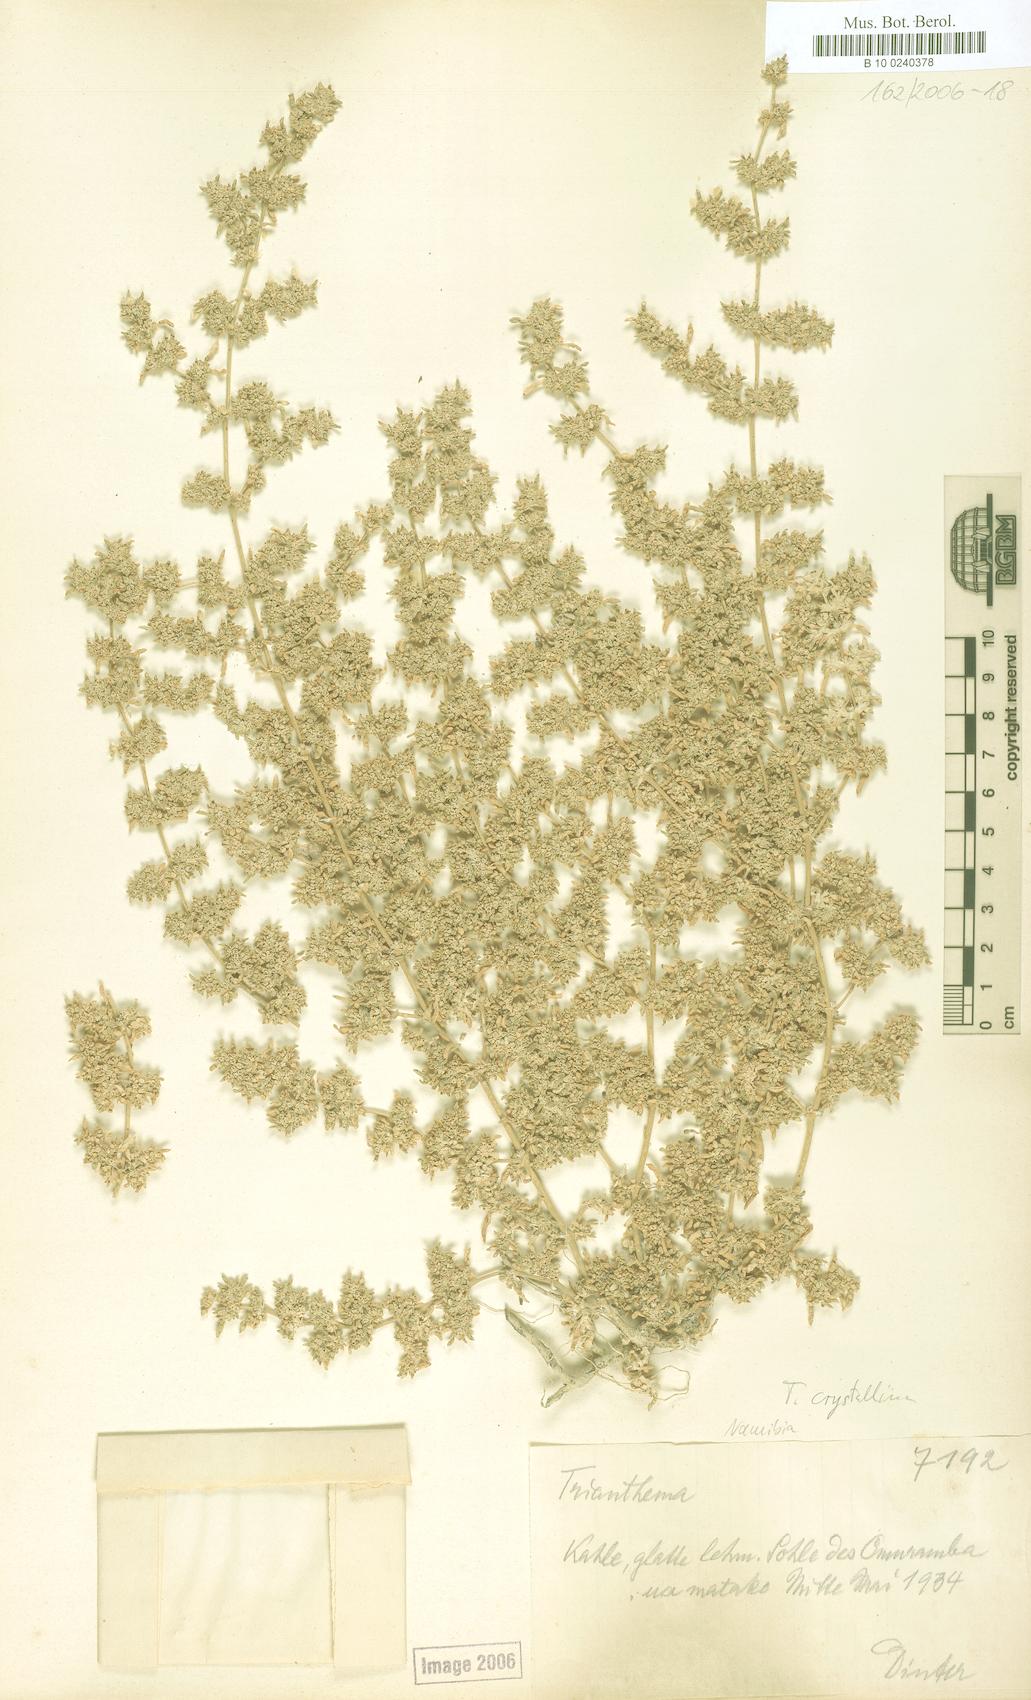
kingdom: Plantae
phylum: Tracheophyta
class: Magnoliopsida
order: Caryophyllales
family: Aizoaceae
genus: Trianthema
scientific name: Trianthema crystallinum
